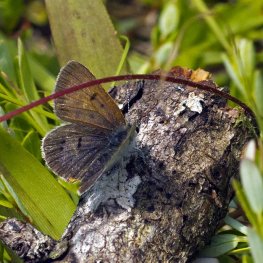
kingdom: Animalia
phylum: Arthropoda
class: Insecta
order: Lepidoptera
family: Sesiidae
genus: Sesia
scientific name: Sesia Lycaena epixanthe
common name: Bog Copper
